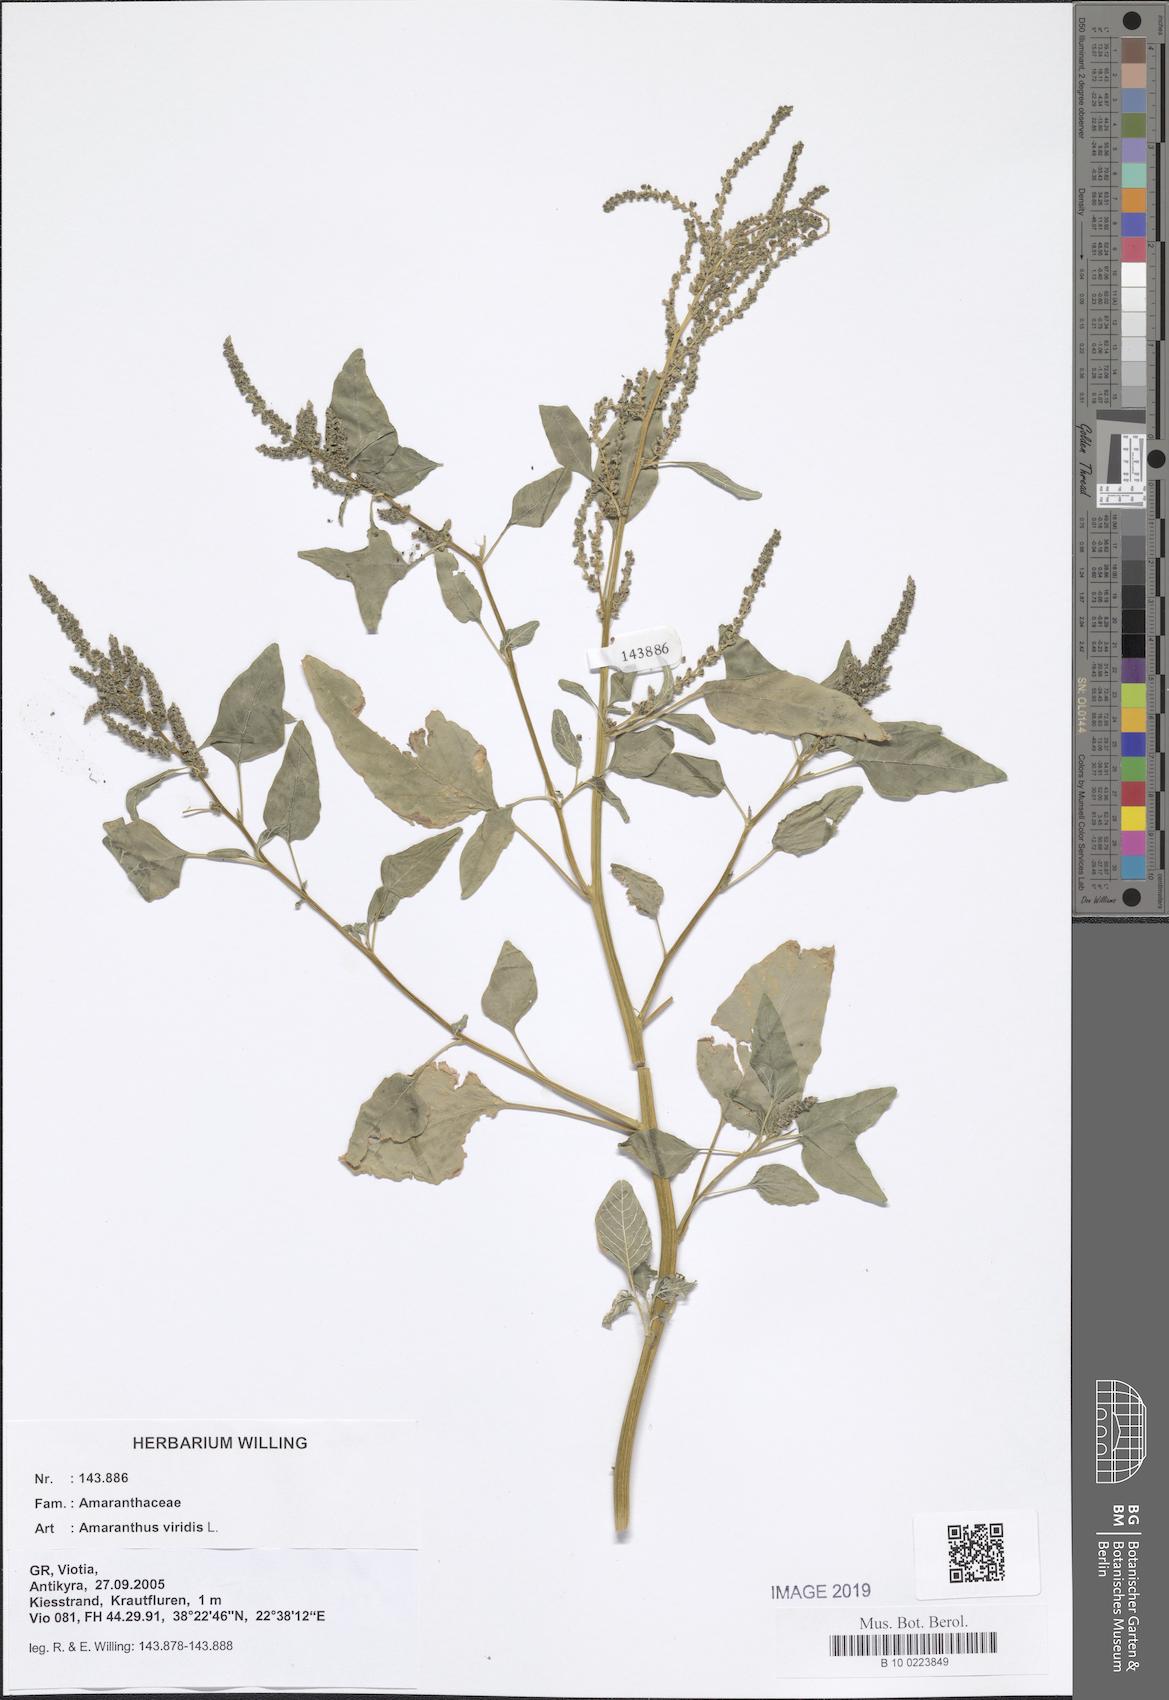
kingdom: Plantae
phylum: Tracheophyta
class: Magnoliopsida
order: Caryophyllales
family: Amaranthaceae
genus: Amaranthus
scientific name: Amaranthus viridis
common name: Slender amaranth
